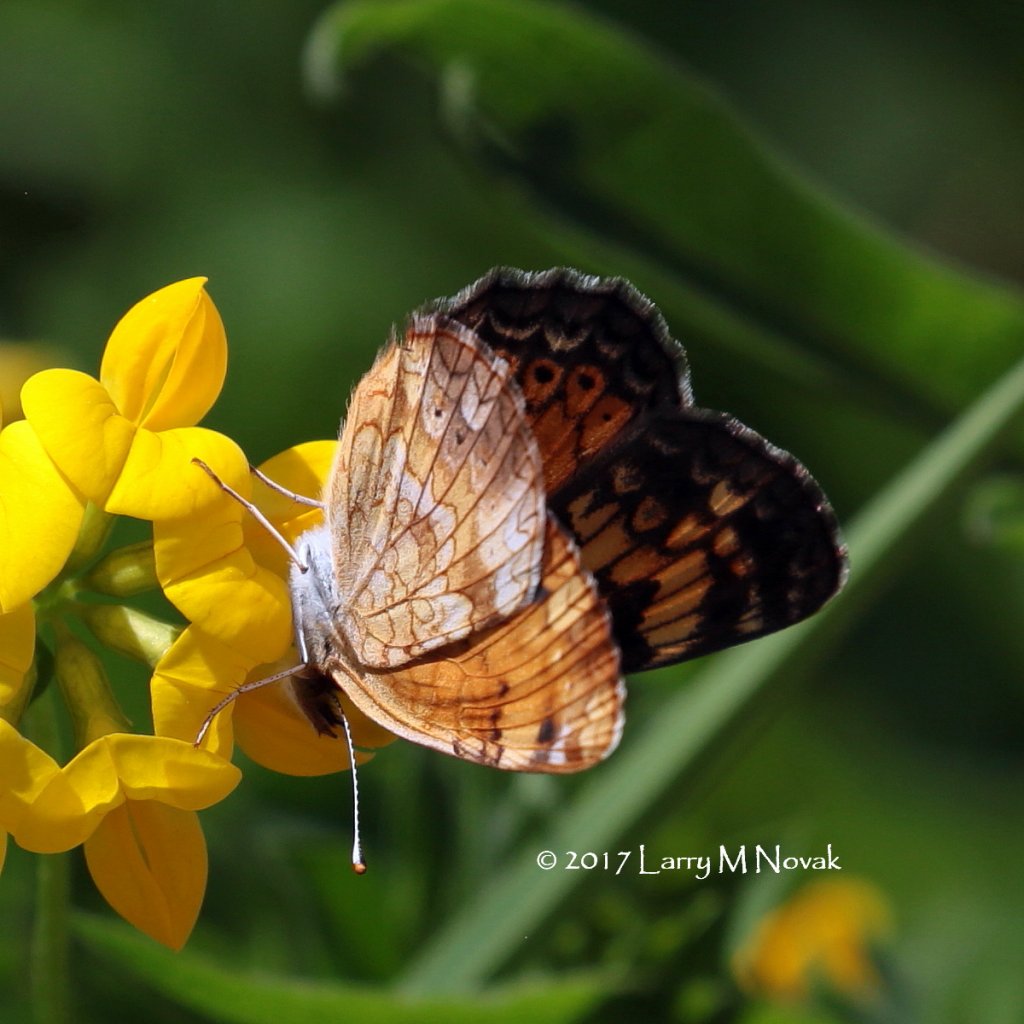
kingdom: Animalia
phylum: Arthropoda
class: Insecta
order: Lepidoptera
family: Nymphalidae
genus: Phyciodes
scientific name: Phyciodes tharos
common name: Pearl Crescent
